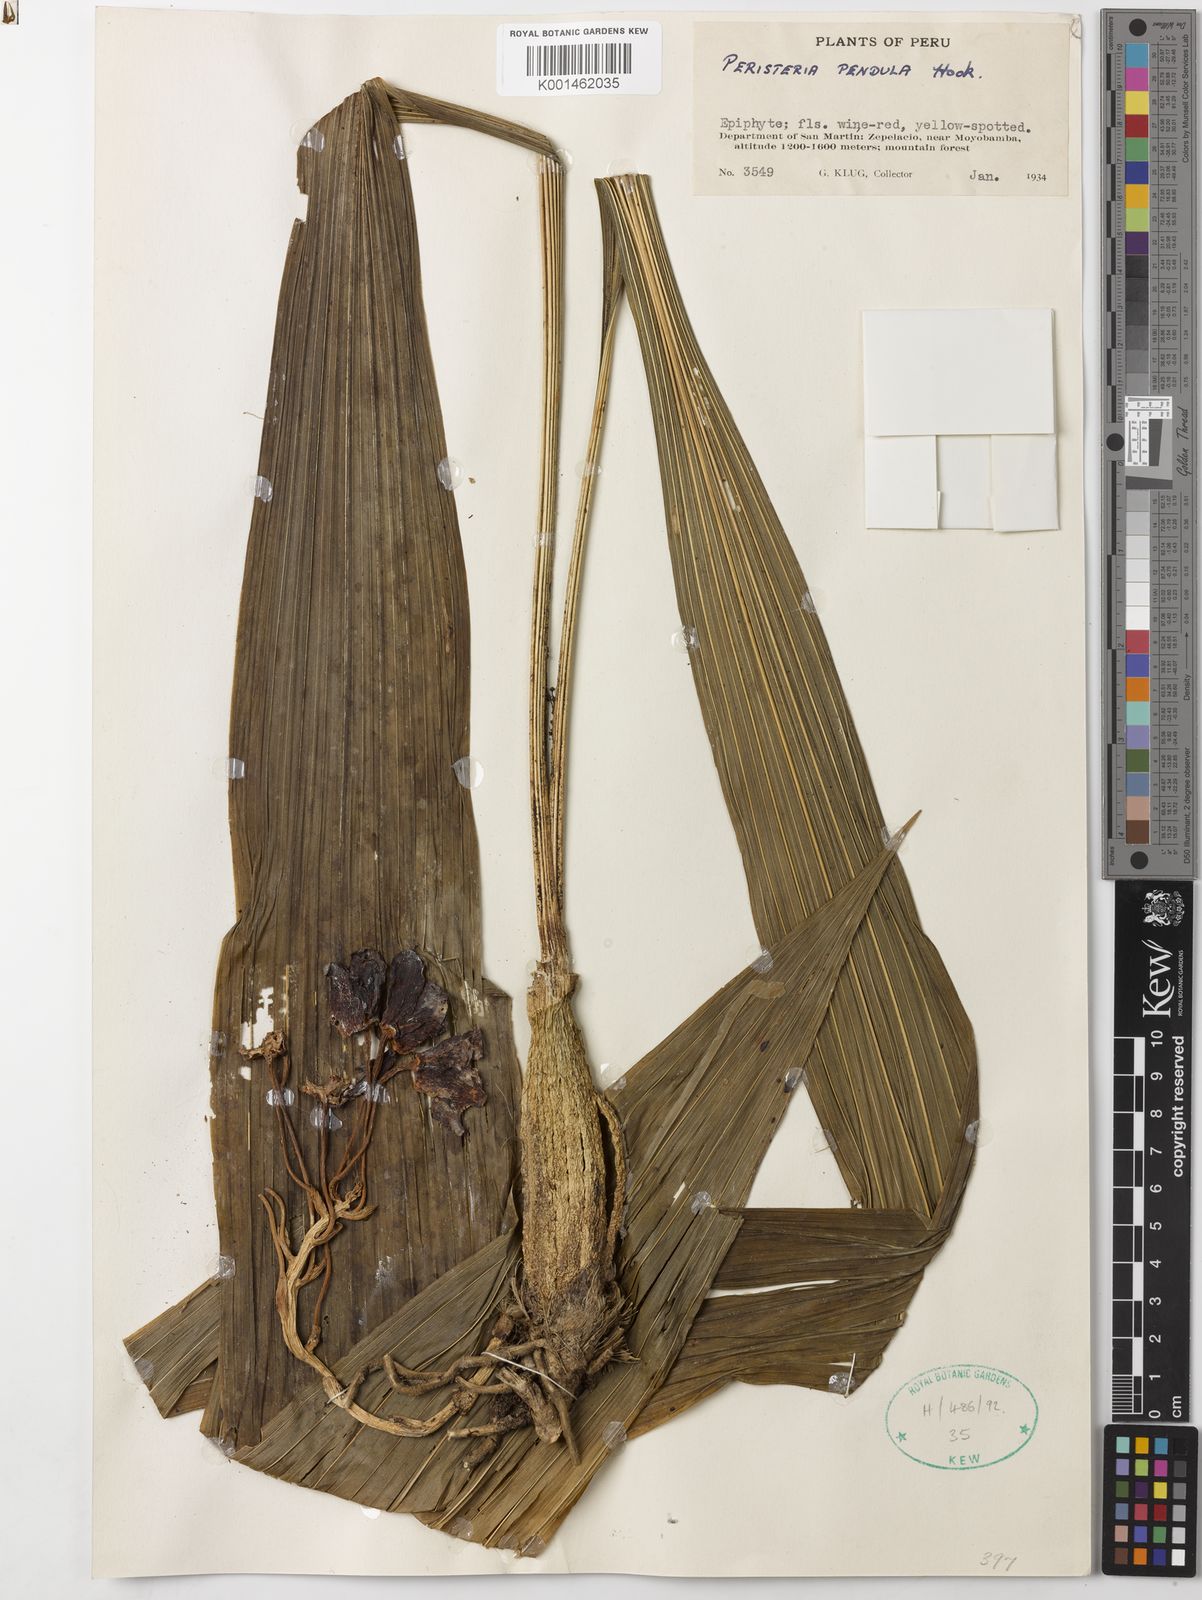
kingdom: Plantae
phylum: Tracheophyta
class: Liliopsida
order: Asparagales
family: Orchidaceae
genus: Peristeria
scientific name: Peristeria pendula
